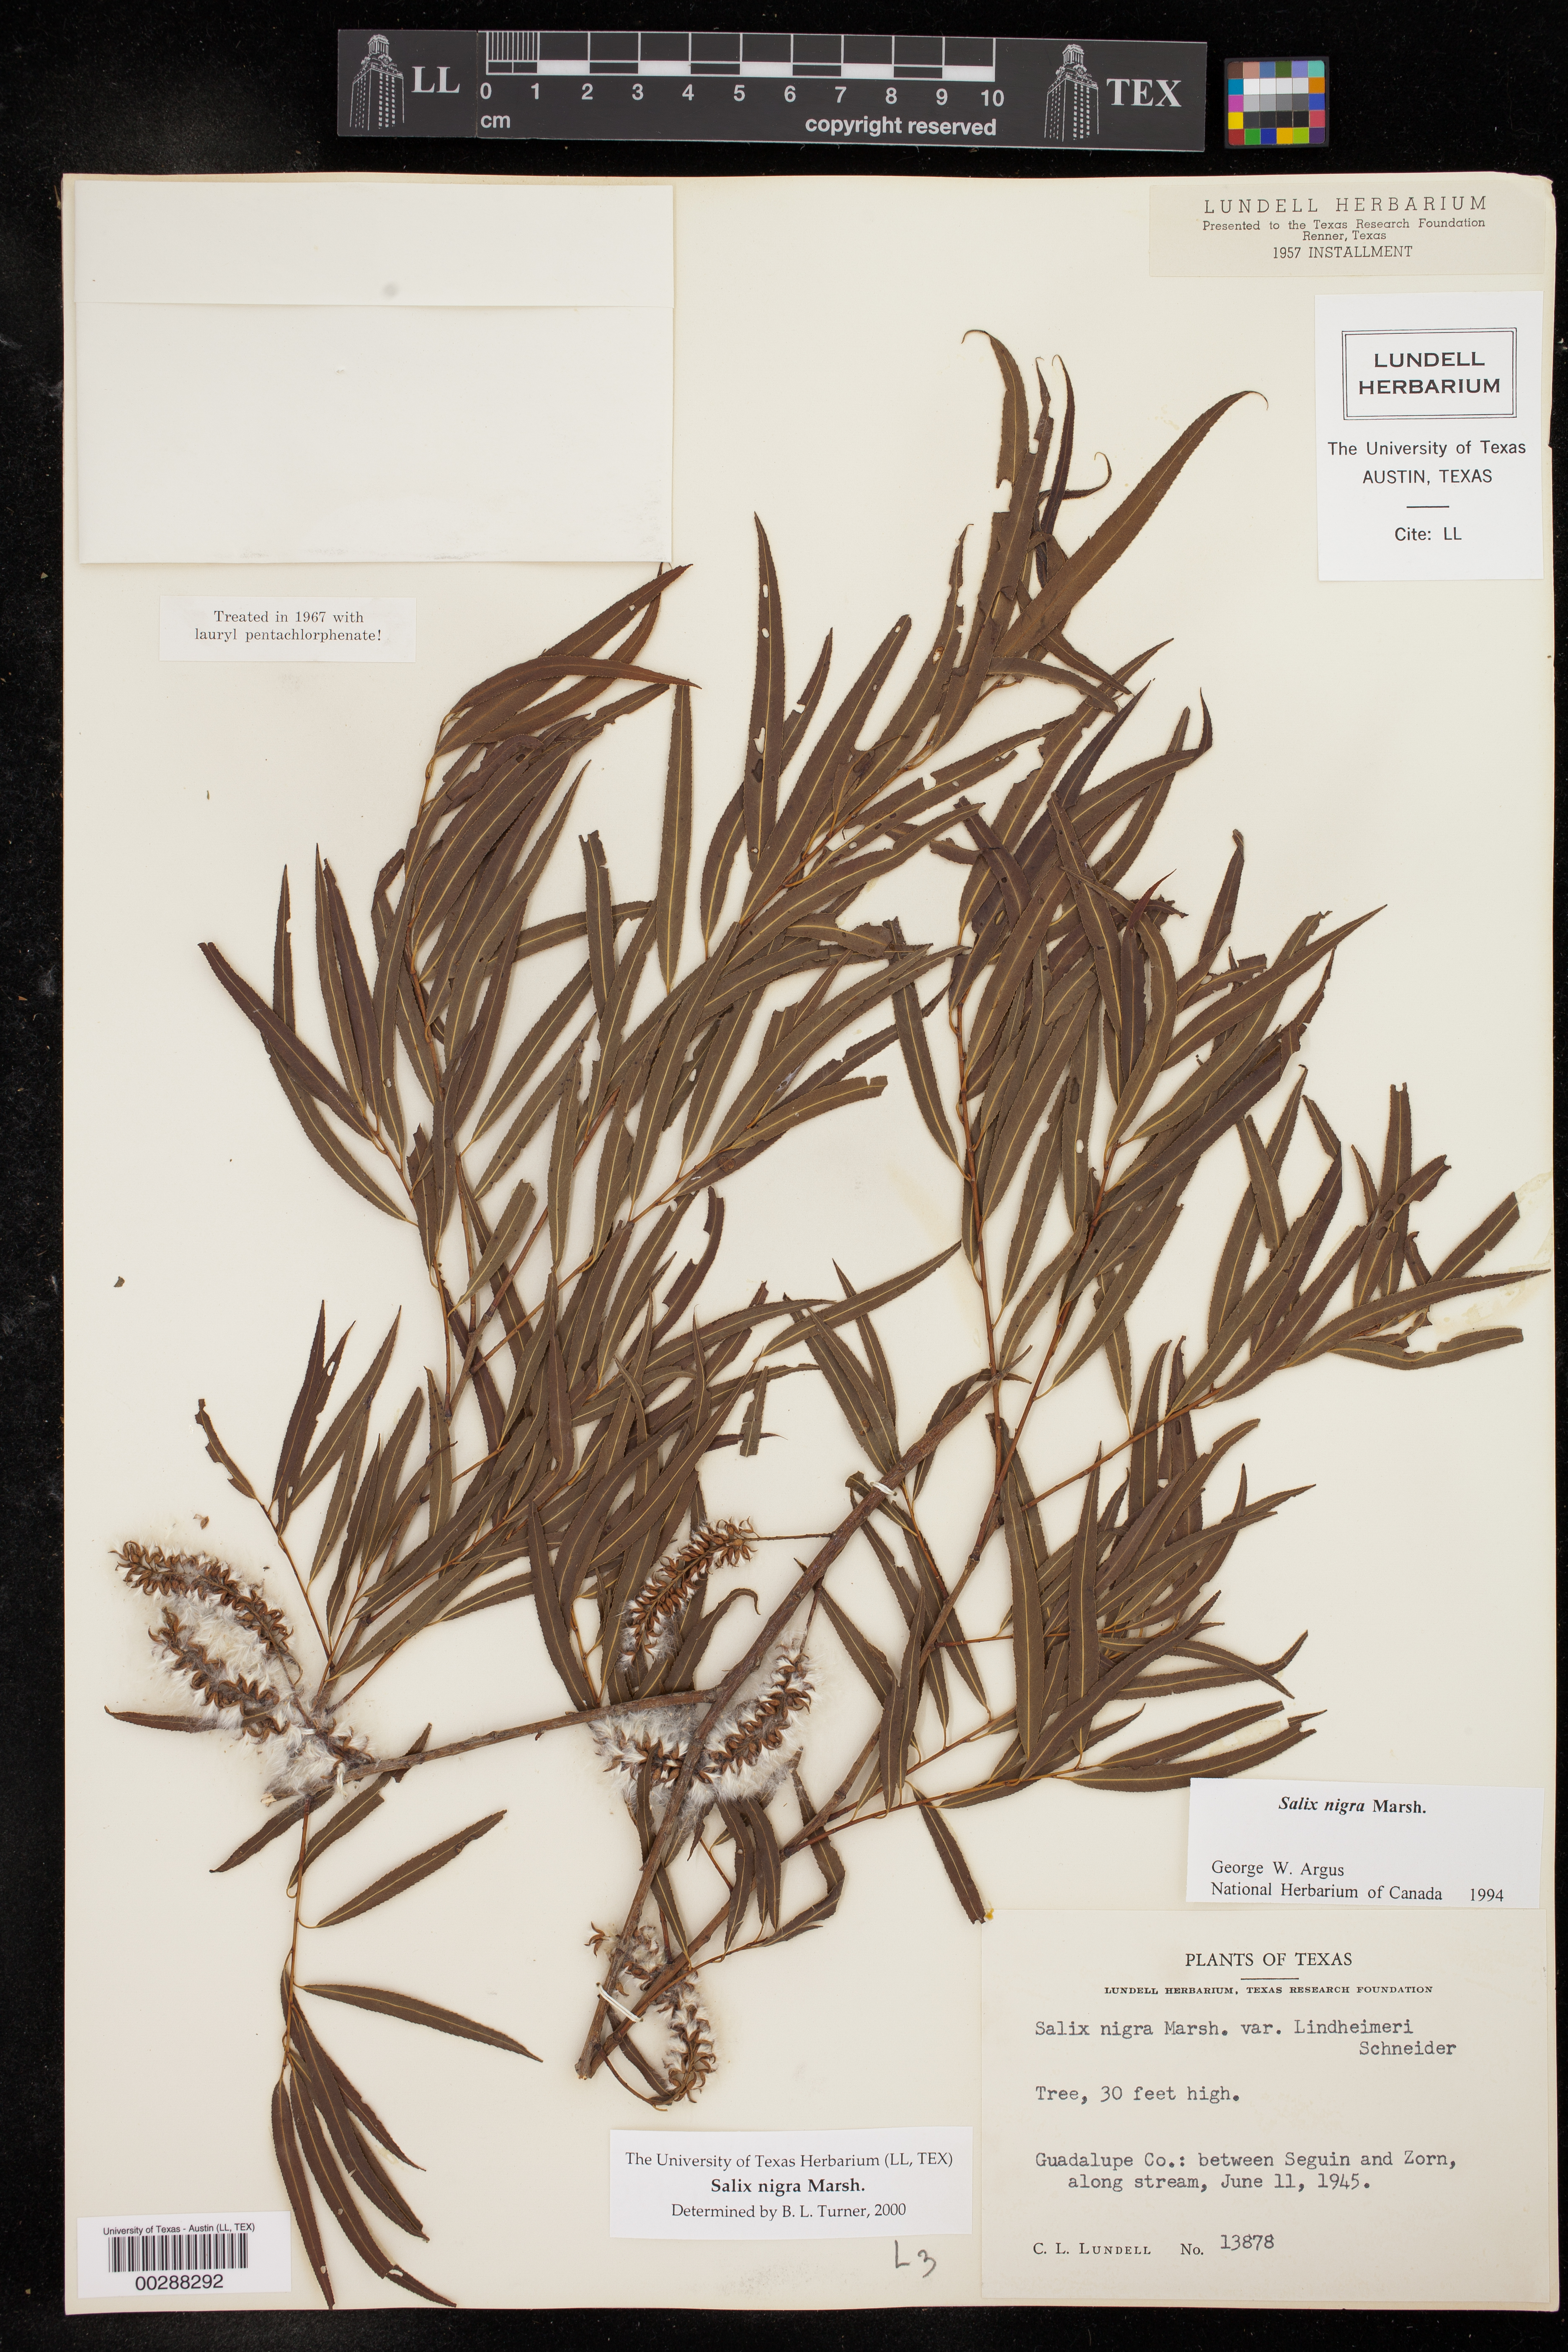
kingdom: Plantae
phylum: Tracheophyta
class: Magnoliopsida
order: Malpighiales
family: Salicaceae
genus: Salix
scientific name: Salix nigra
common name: Black willow
